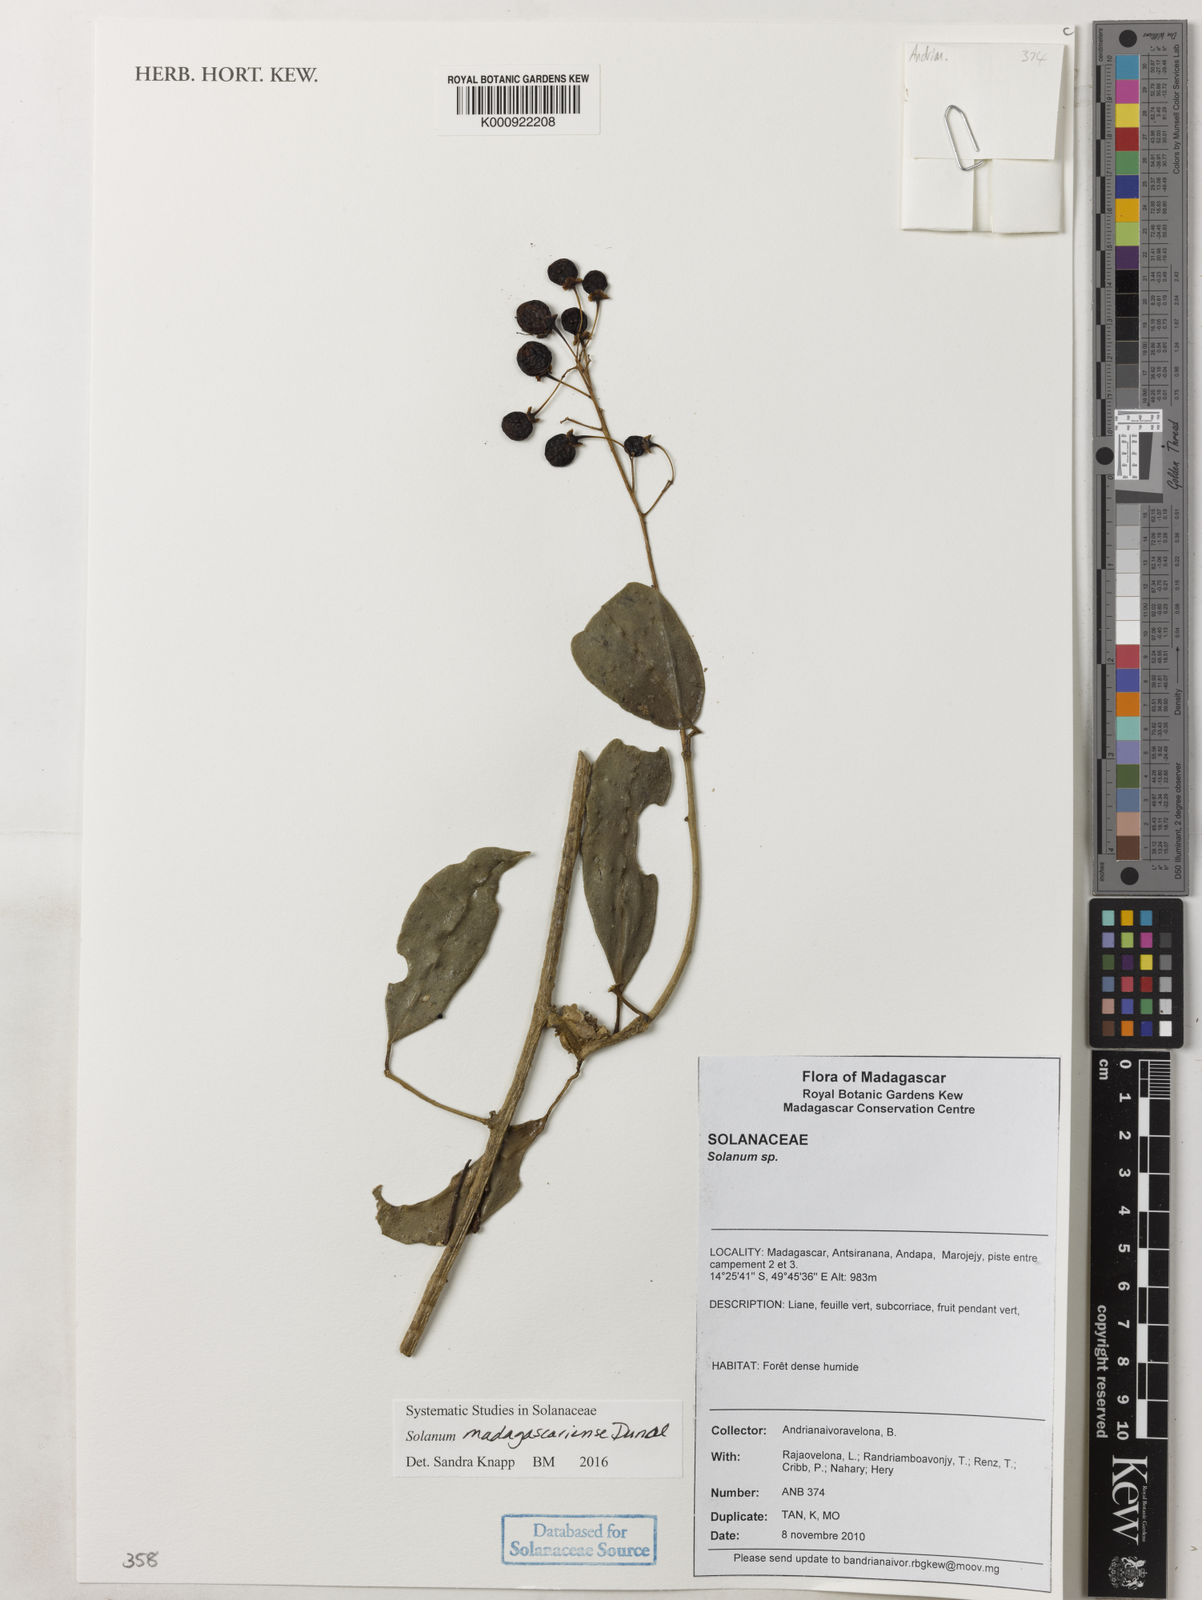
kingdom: Plantae
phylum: Tracheophyta
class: Magnoliopsida
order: Solanales
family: Solanaceae
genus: Solanum
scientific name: Solanum madagascariense
